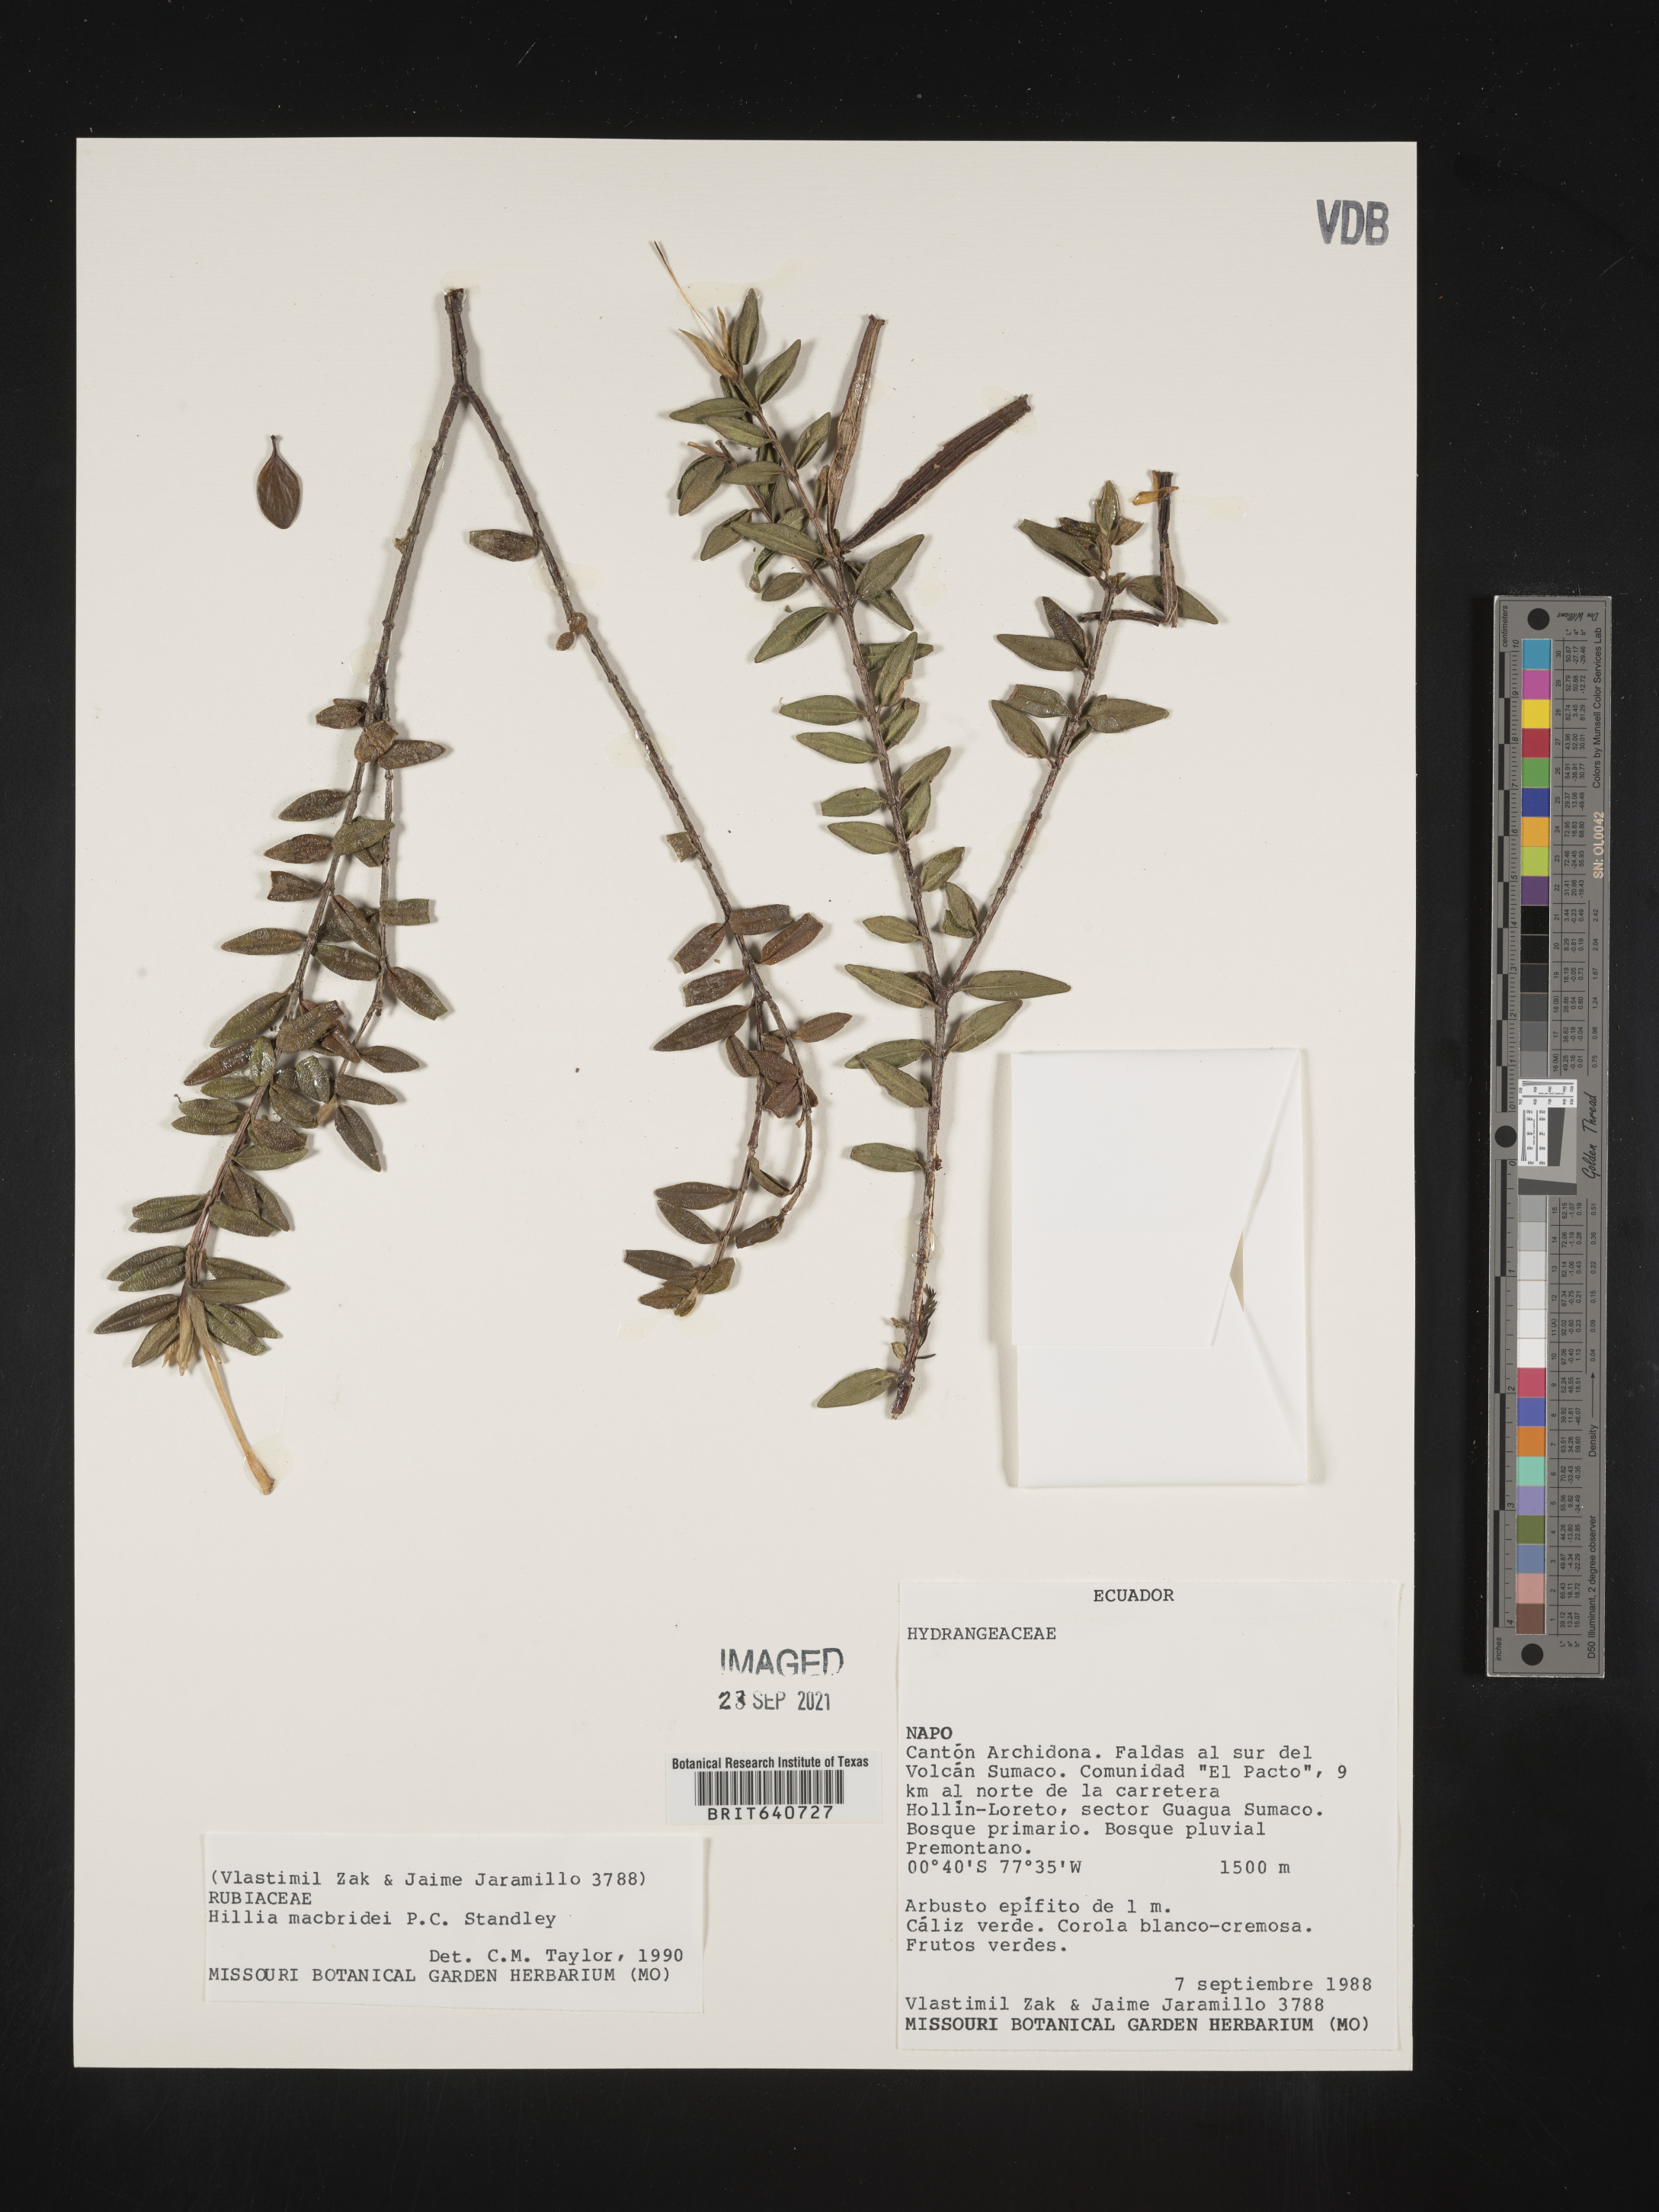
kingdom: Plantae
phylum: Tracheophyta
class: Magnoliopsida
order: Gentianales
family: Rubiaceae
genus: Hillia
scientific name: Hillia
